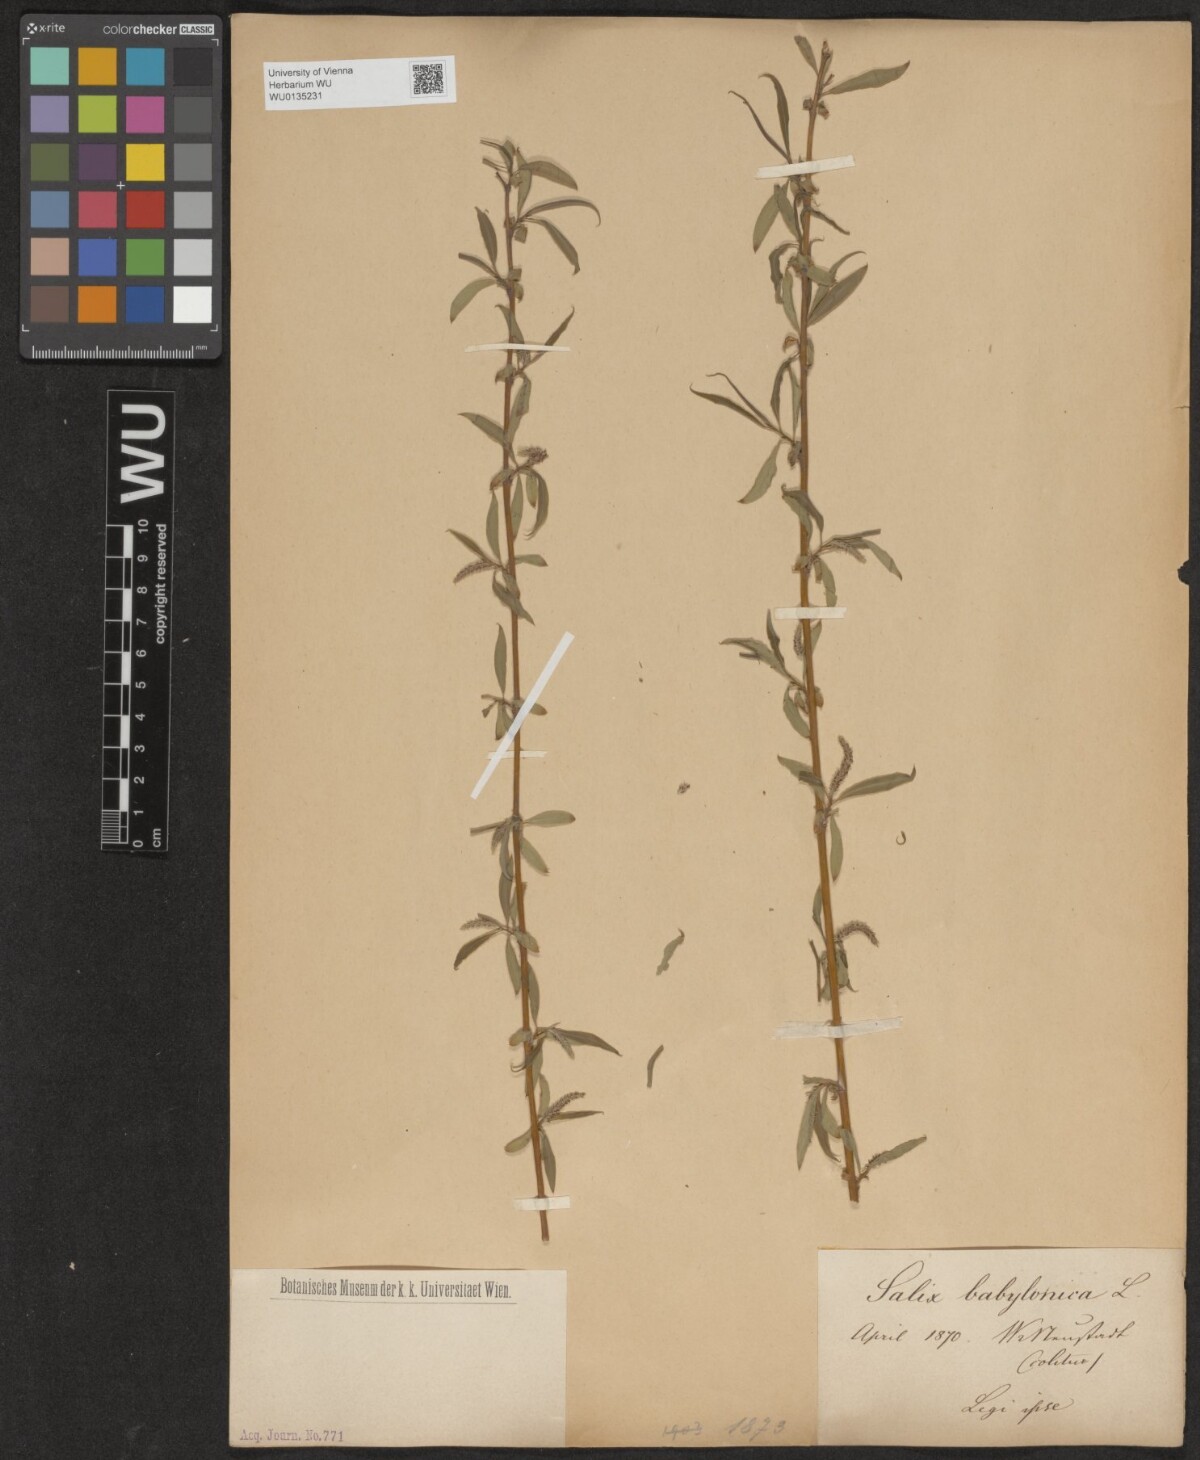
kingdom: Plantae
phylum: Tracheophyta
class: Magnoliopsida
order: Malpighiales
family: Salicaceae
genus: Salix
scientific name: Salix babylonica
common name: Weeping willow
